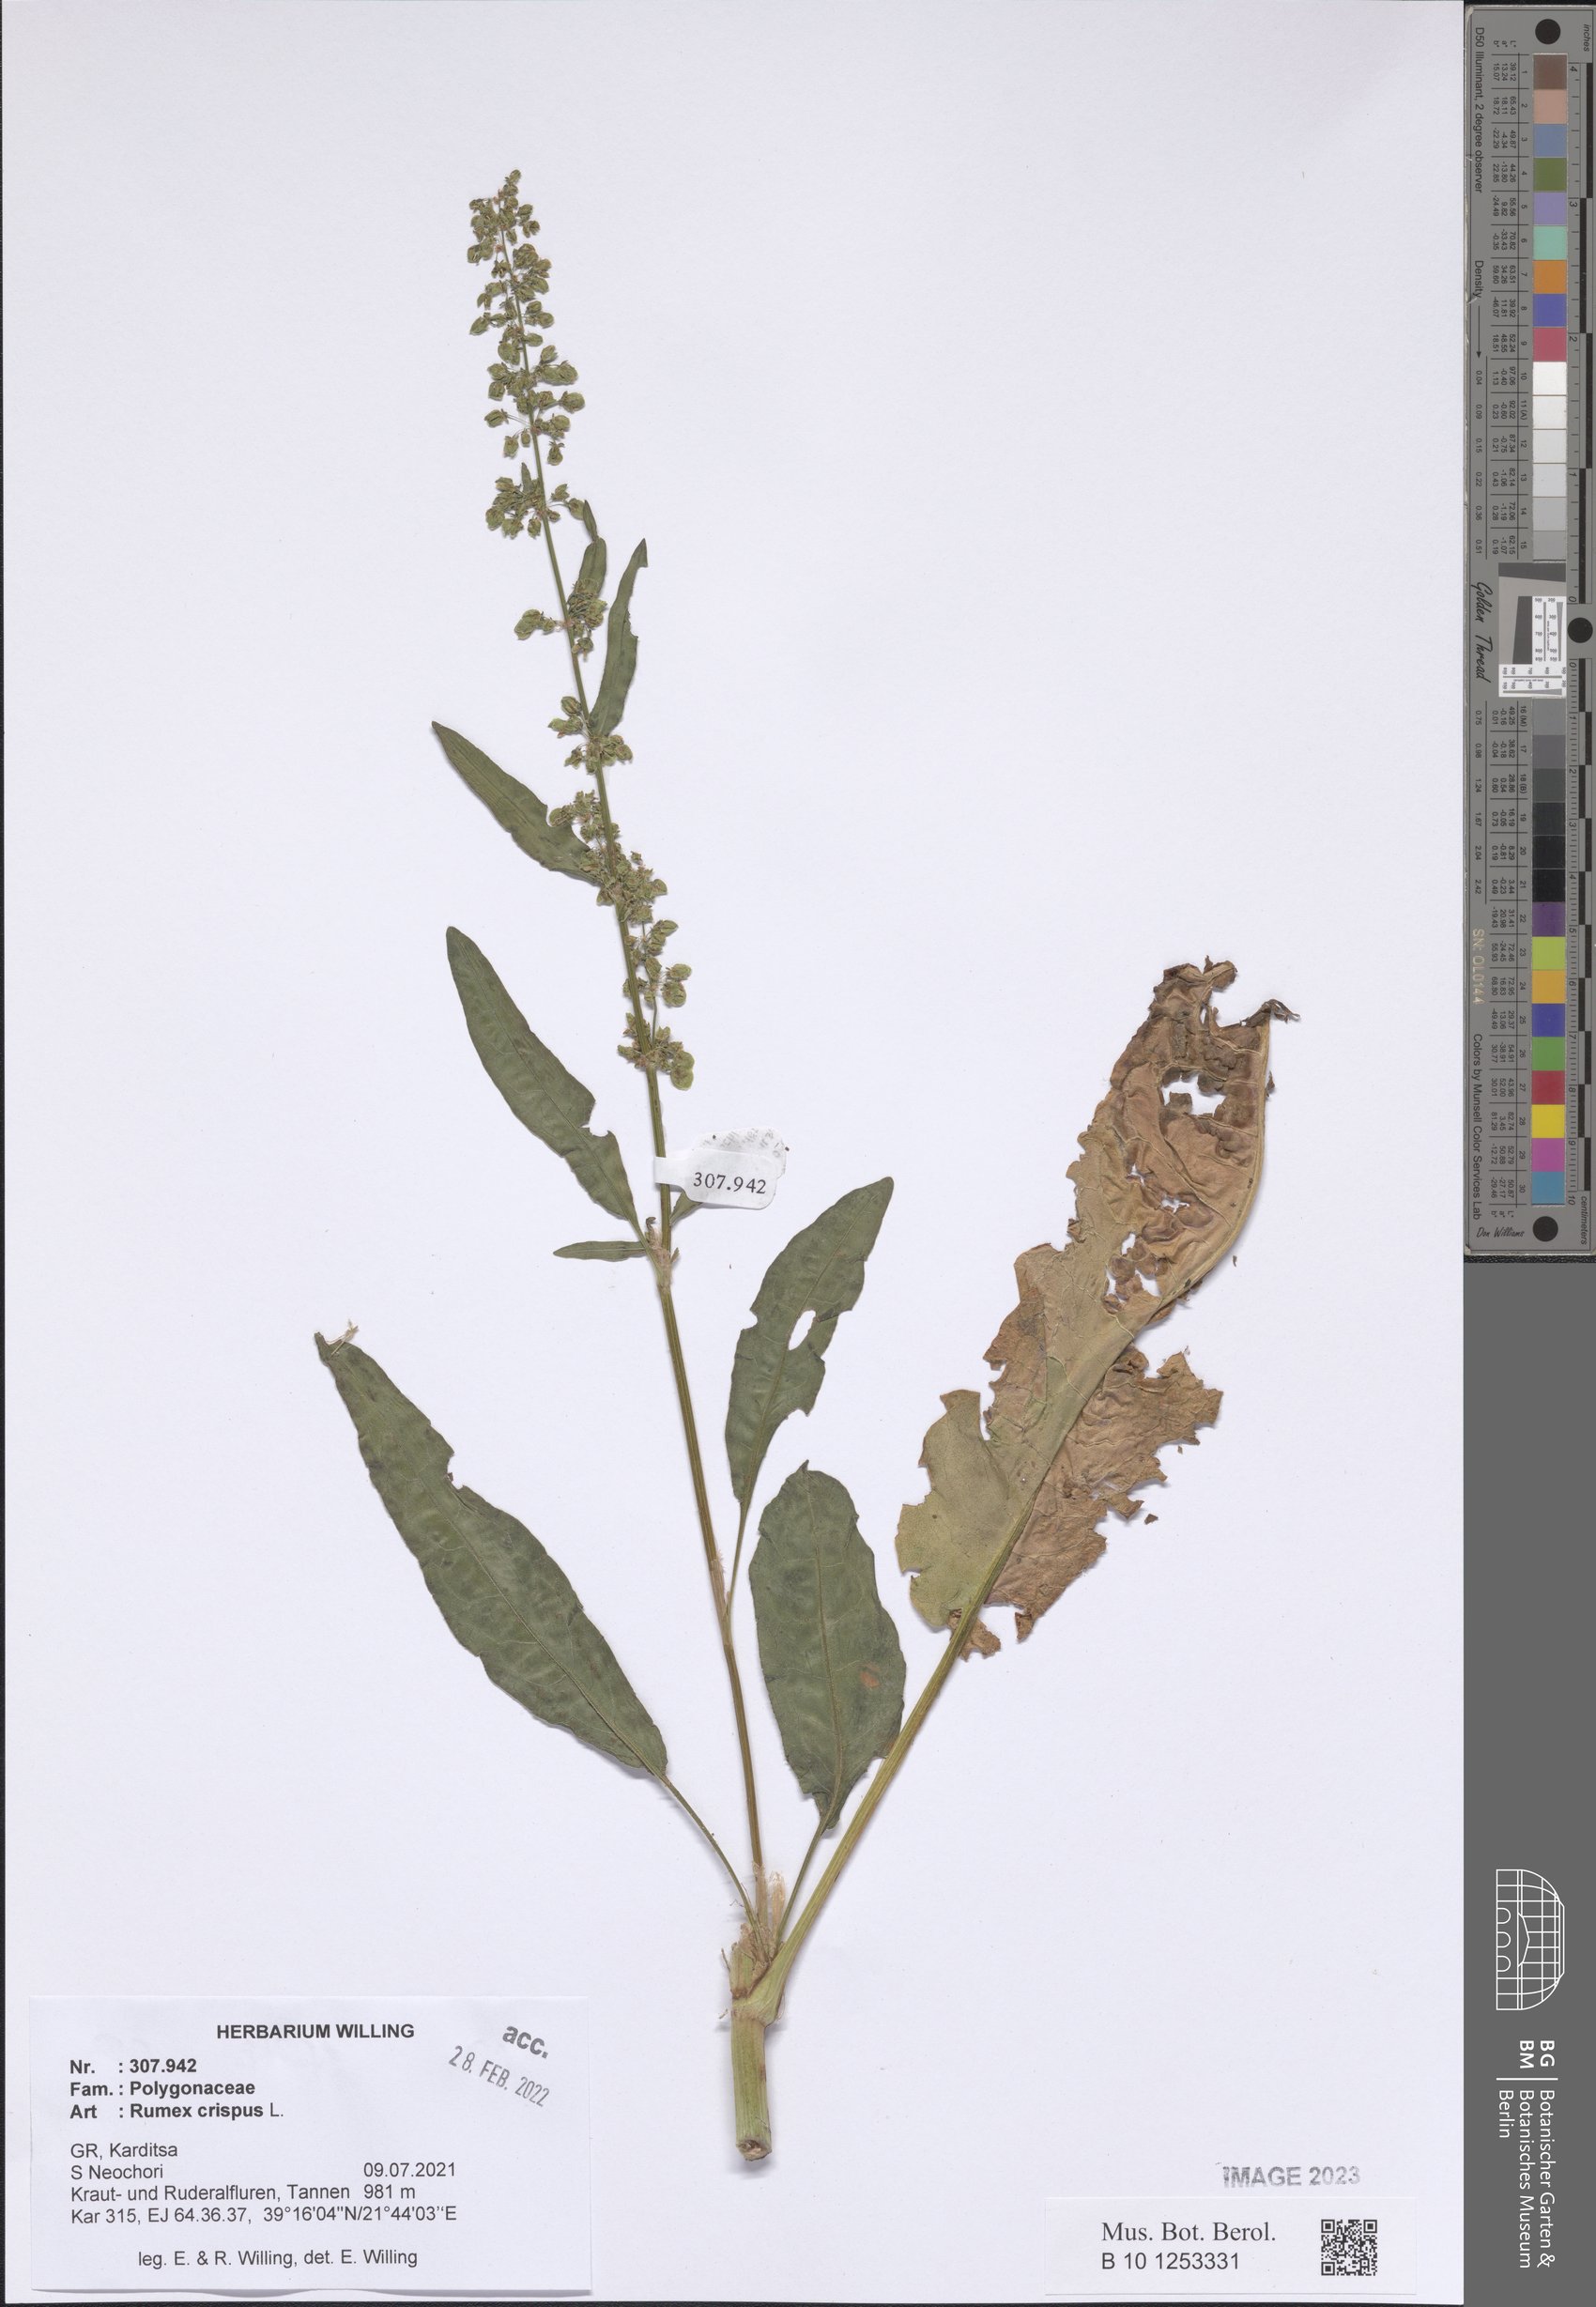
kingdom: Plantae
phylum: Tracheophyta
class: Magnoliopsida
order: Caryophyllales
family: Polygonaceae
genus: Rumex
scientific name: Rumex crispus
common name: Curled dock
